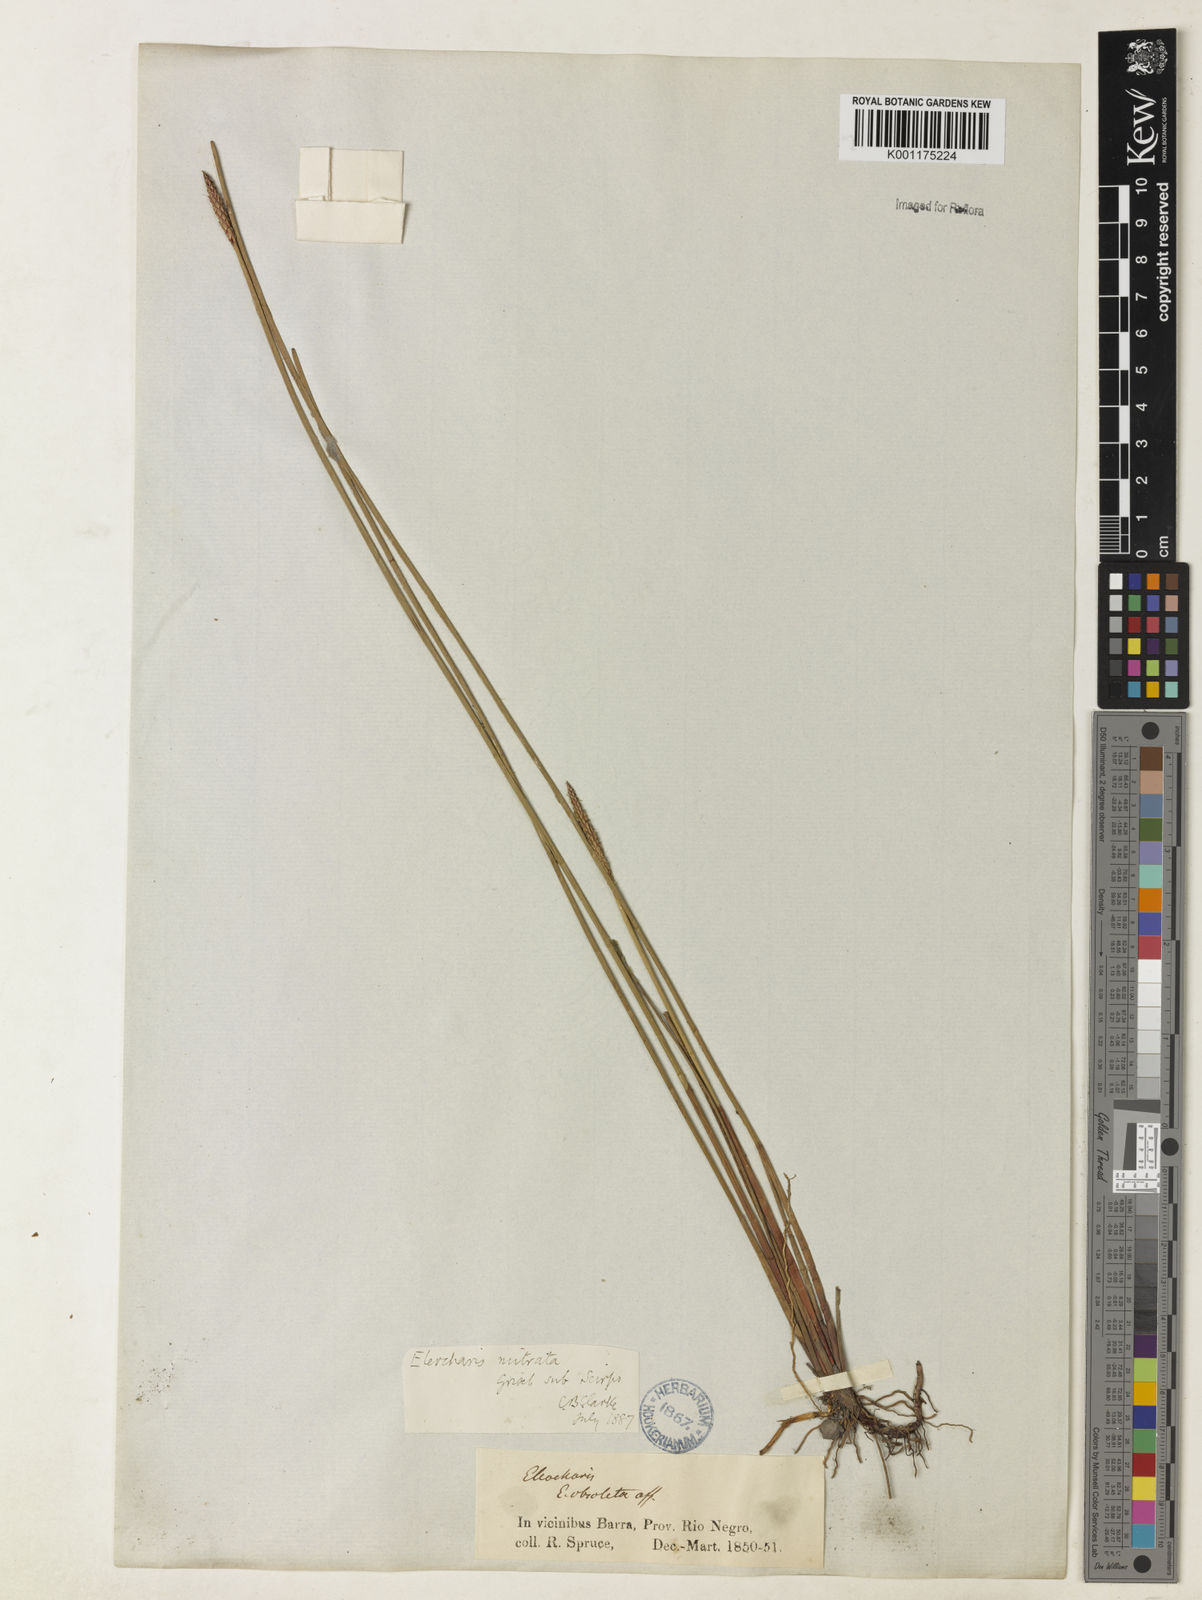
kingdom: Plantae
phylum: Tracheophyta
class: Liliopsida
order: Poales
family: Cyperaceae
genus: Eleocharis
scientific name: Eleocharis tiarata
